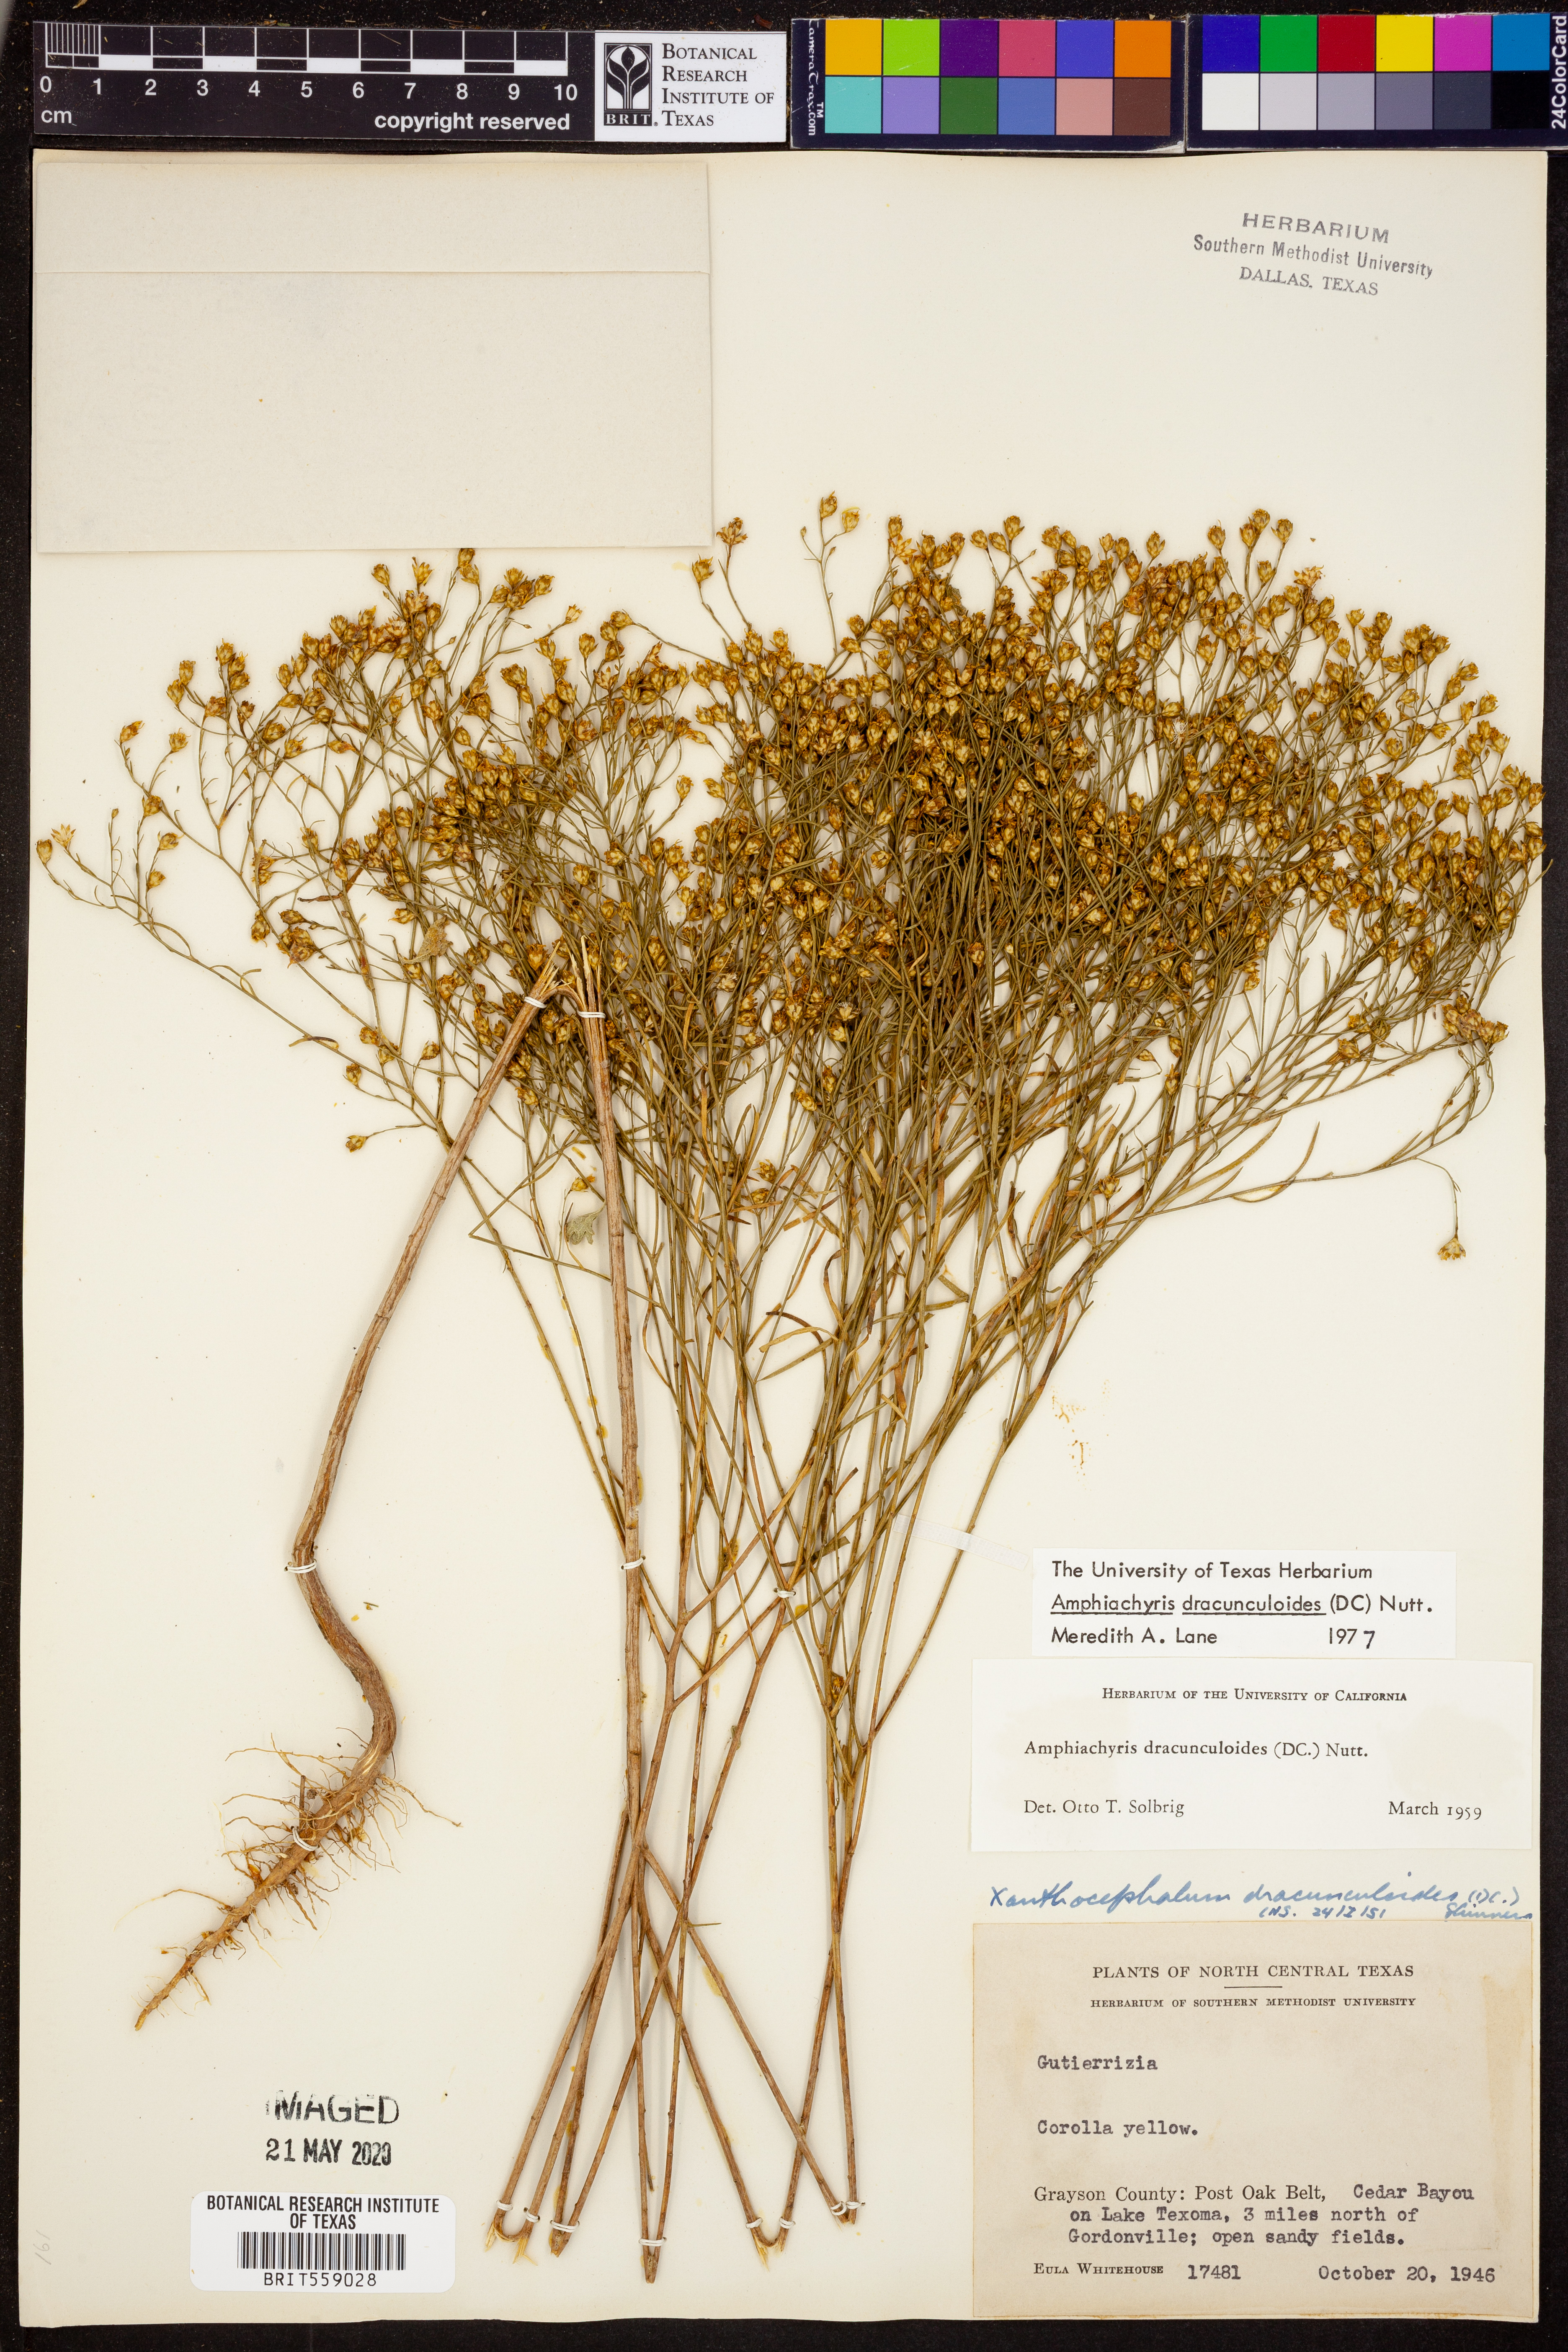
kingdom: Plantae
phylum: Tracheophyta
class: Magnoliopsida
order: Asterales
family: Asteraceae
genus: Amphiachyris
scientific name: Amphiachyris dracunculoides
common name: Broomweed
